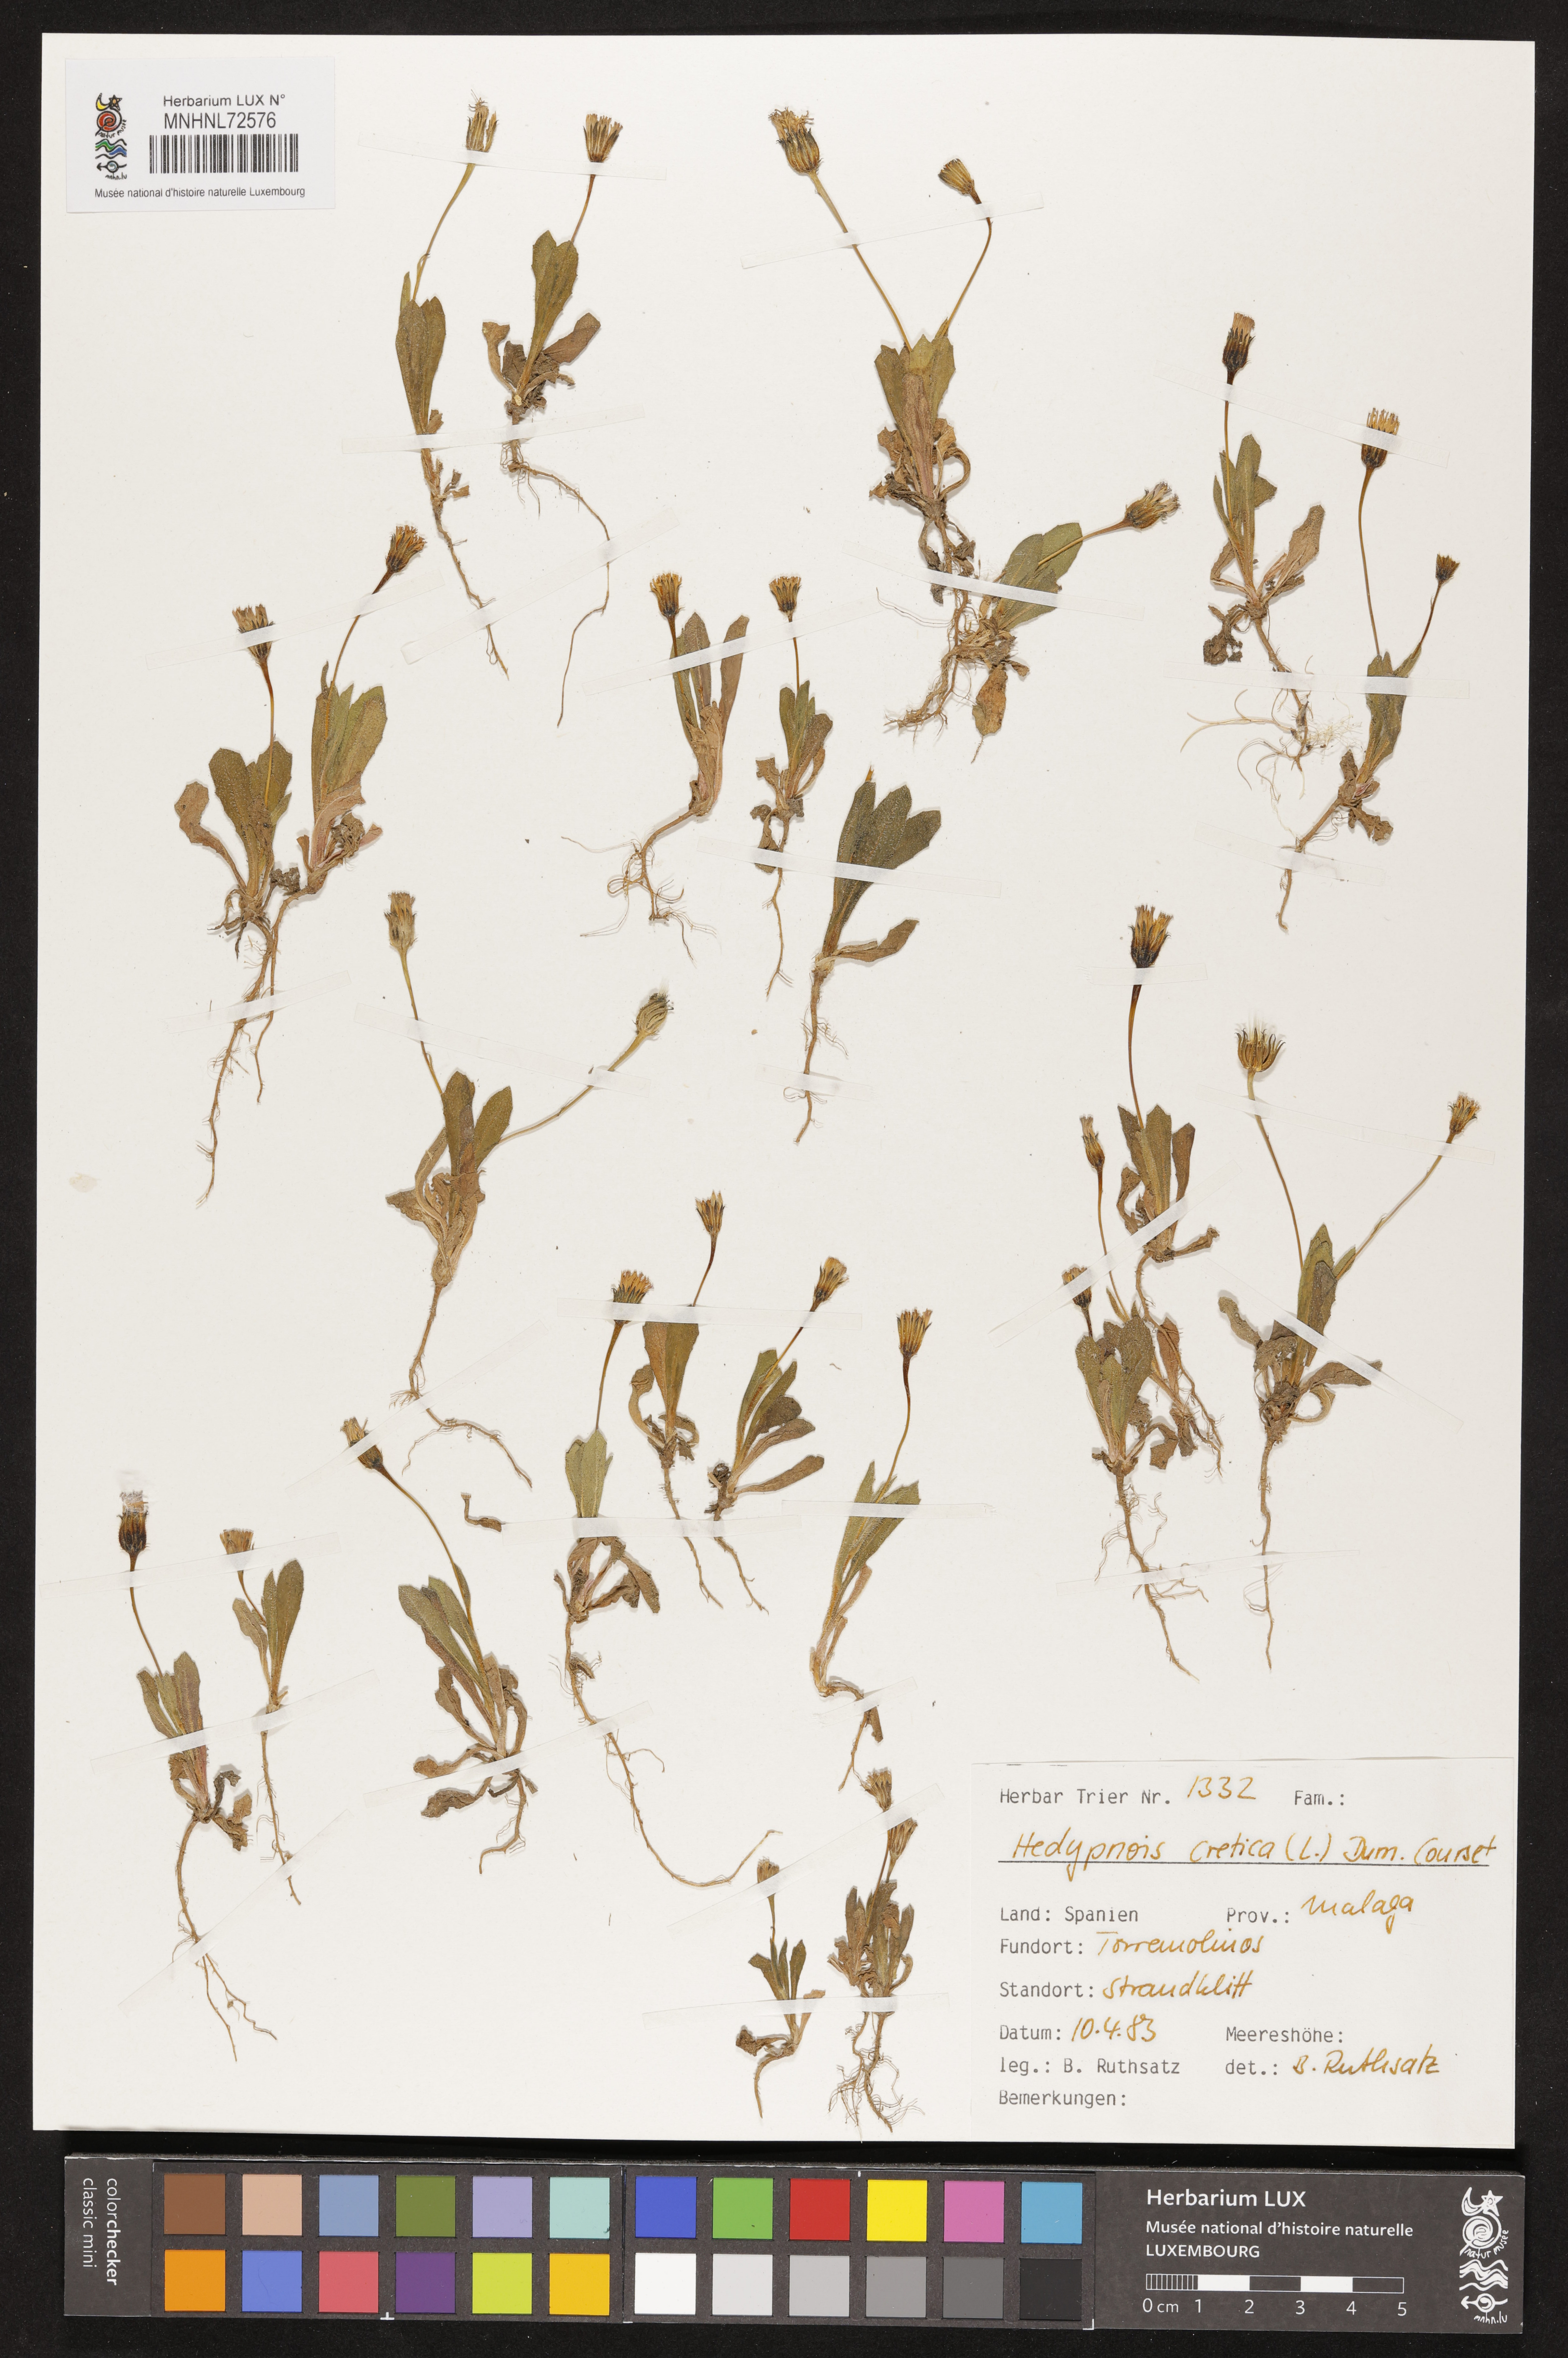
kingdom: Plantae
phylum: Tracheophyta
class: Magnoliopsida
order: Asterales
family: Asteraceae
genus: Hedypnois
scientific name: Hedypnois cretica
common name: Scaly hawkbit
